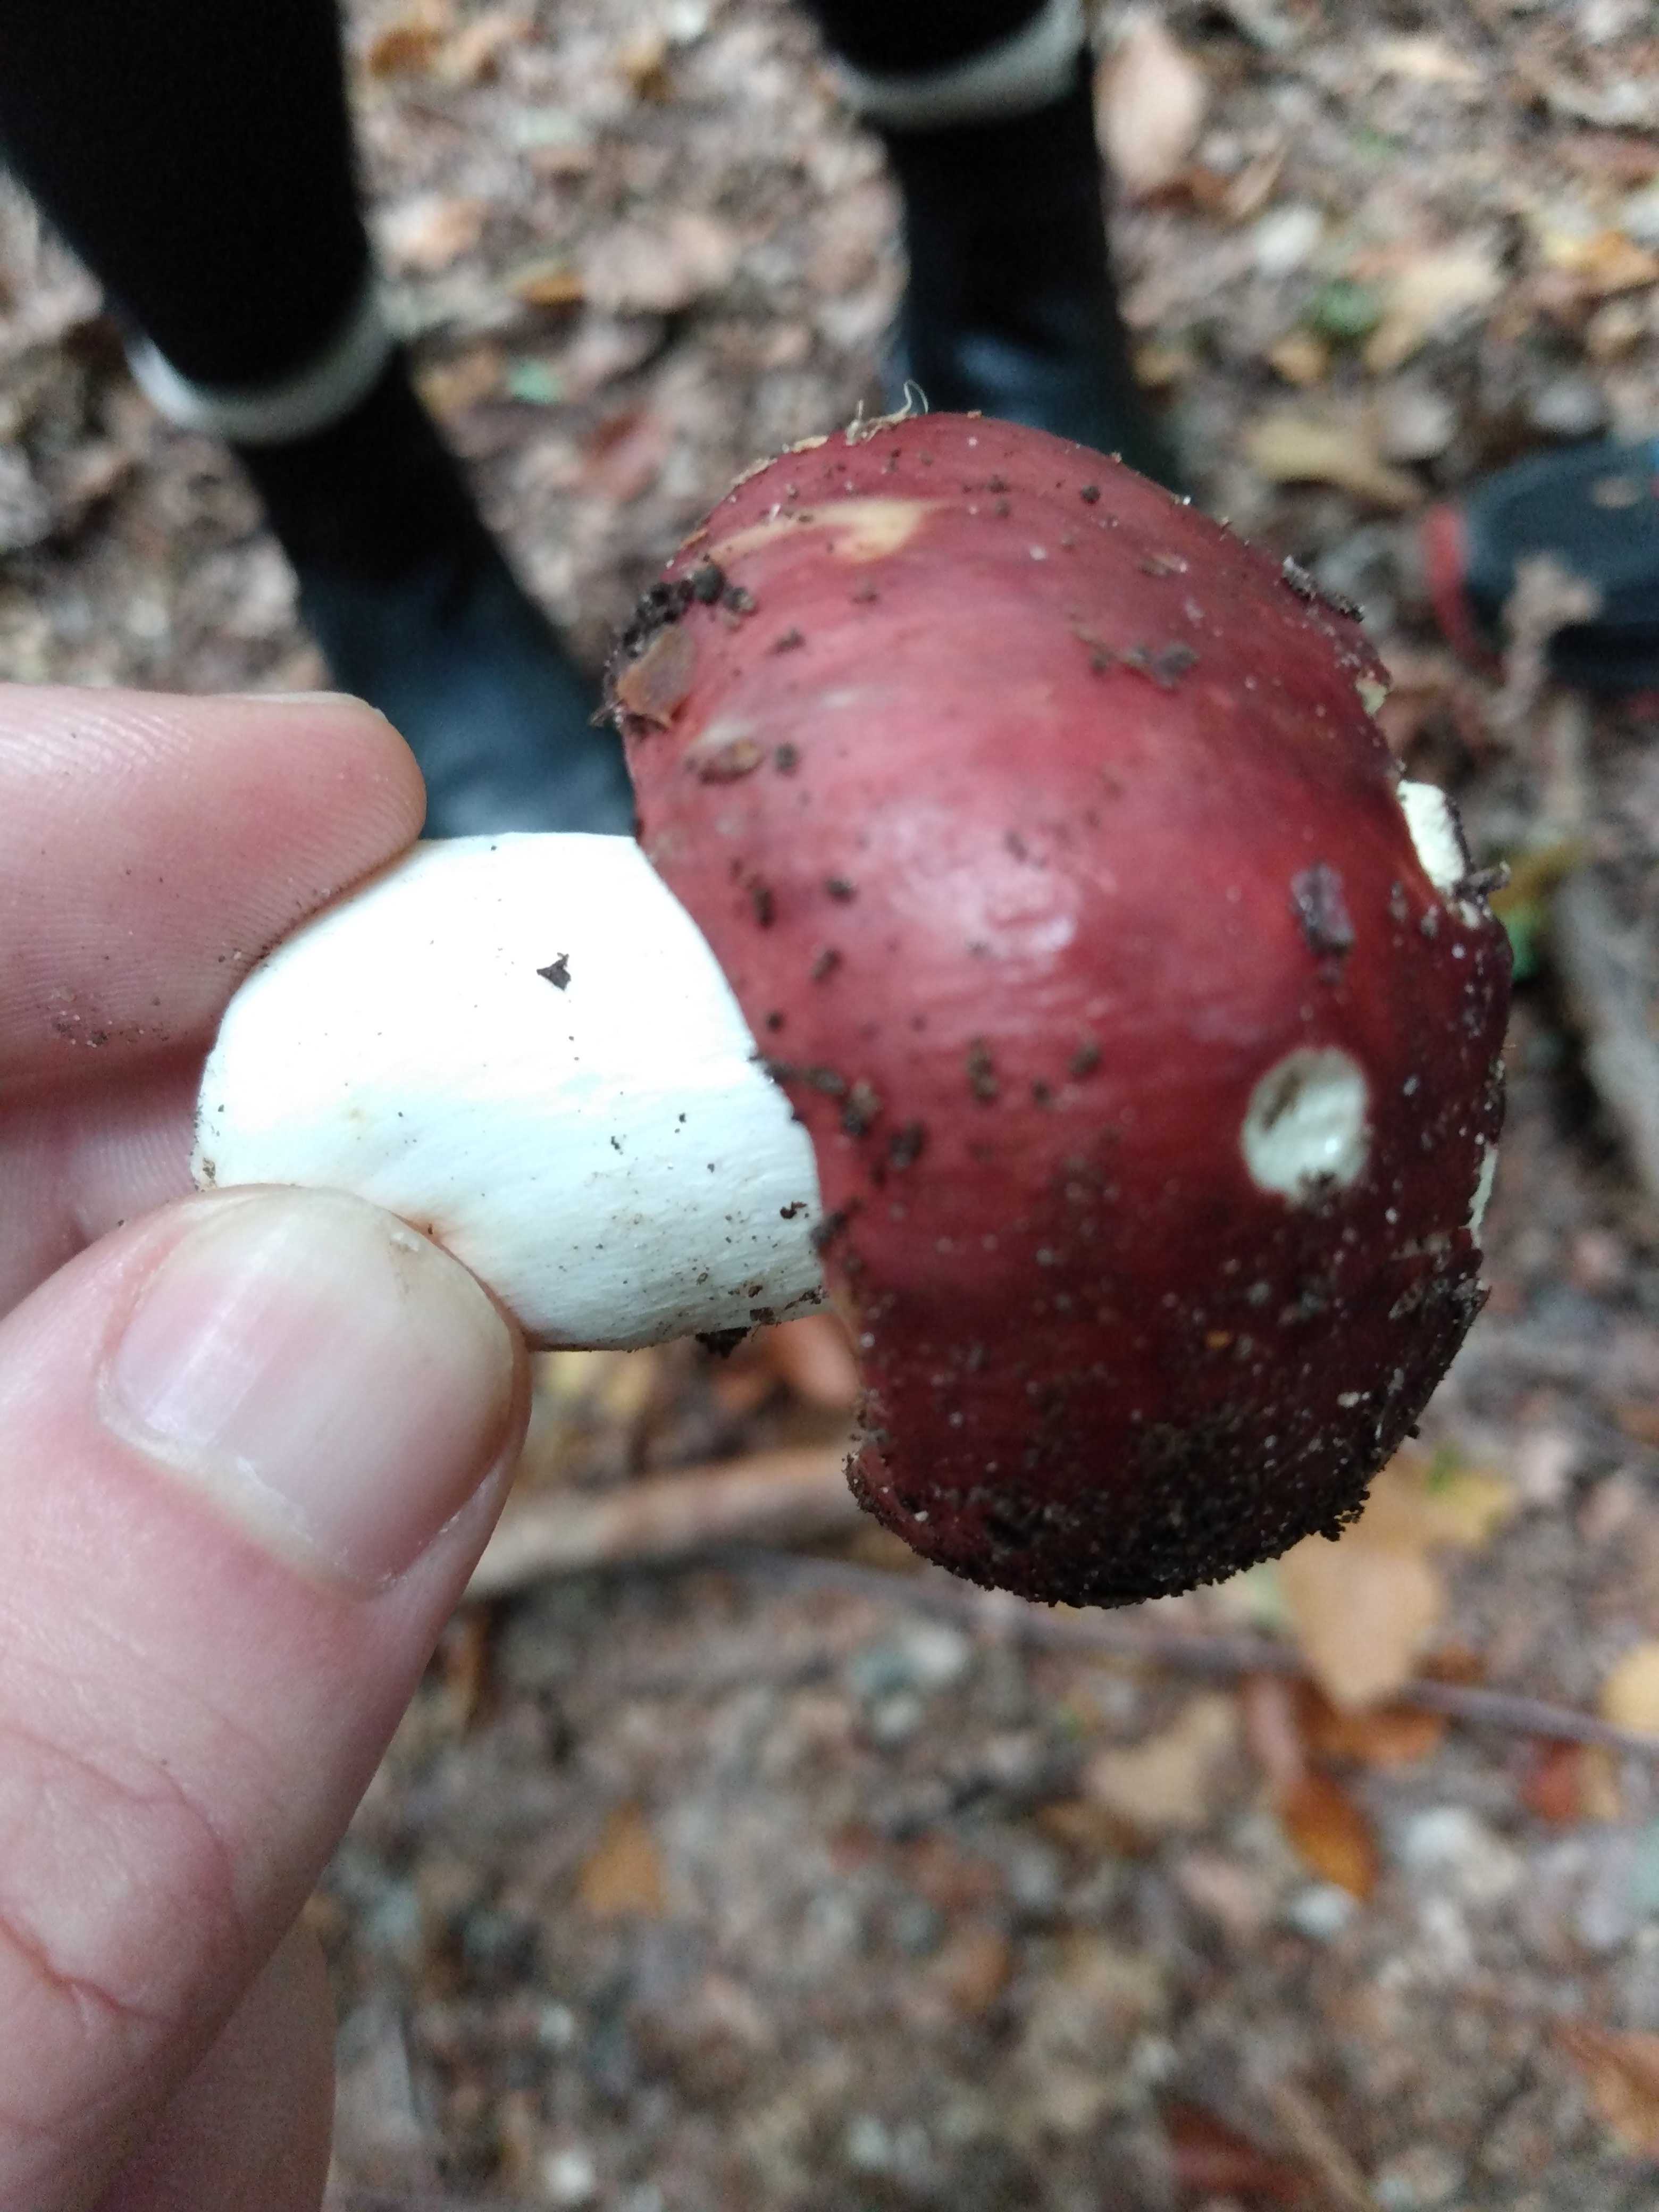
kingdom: Fungi
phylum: Basidiomycota
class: Agaricomycetes
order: Russulales
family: Russulaceae
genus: Russula
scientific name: Russula
